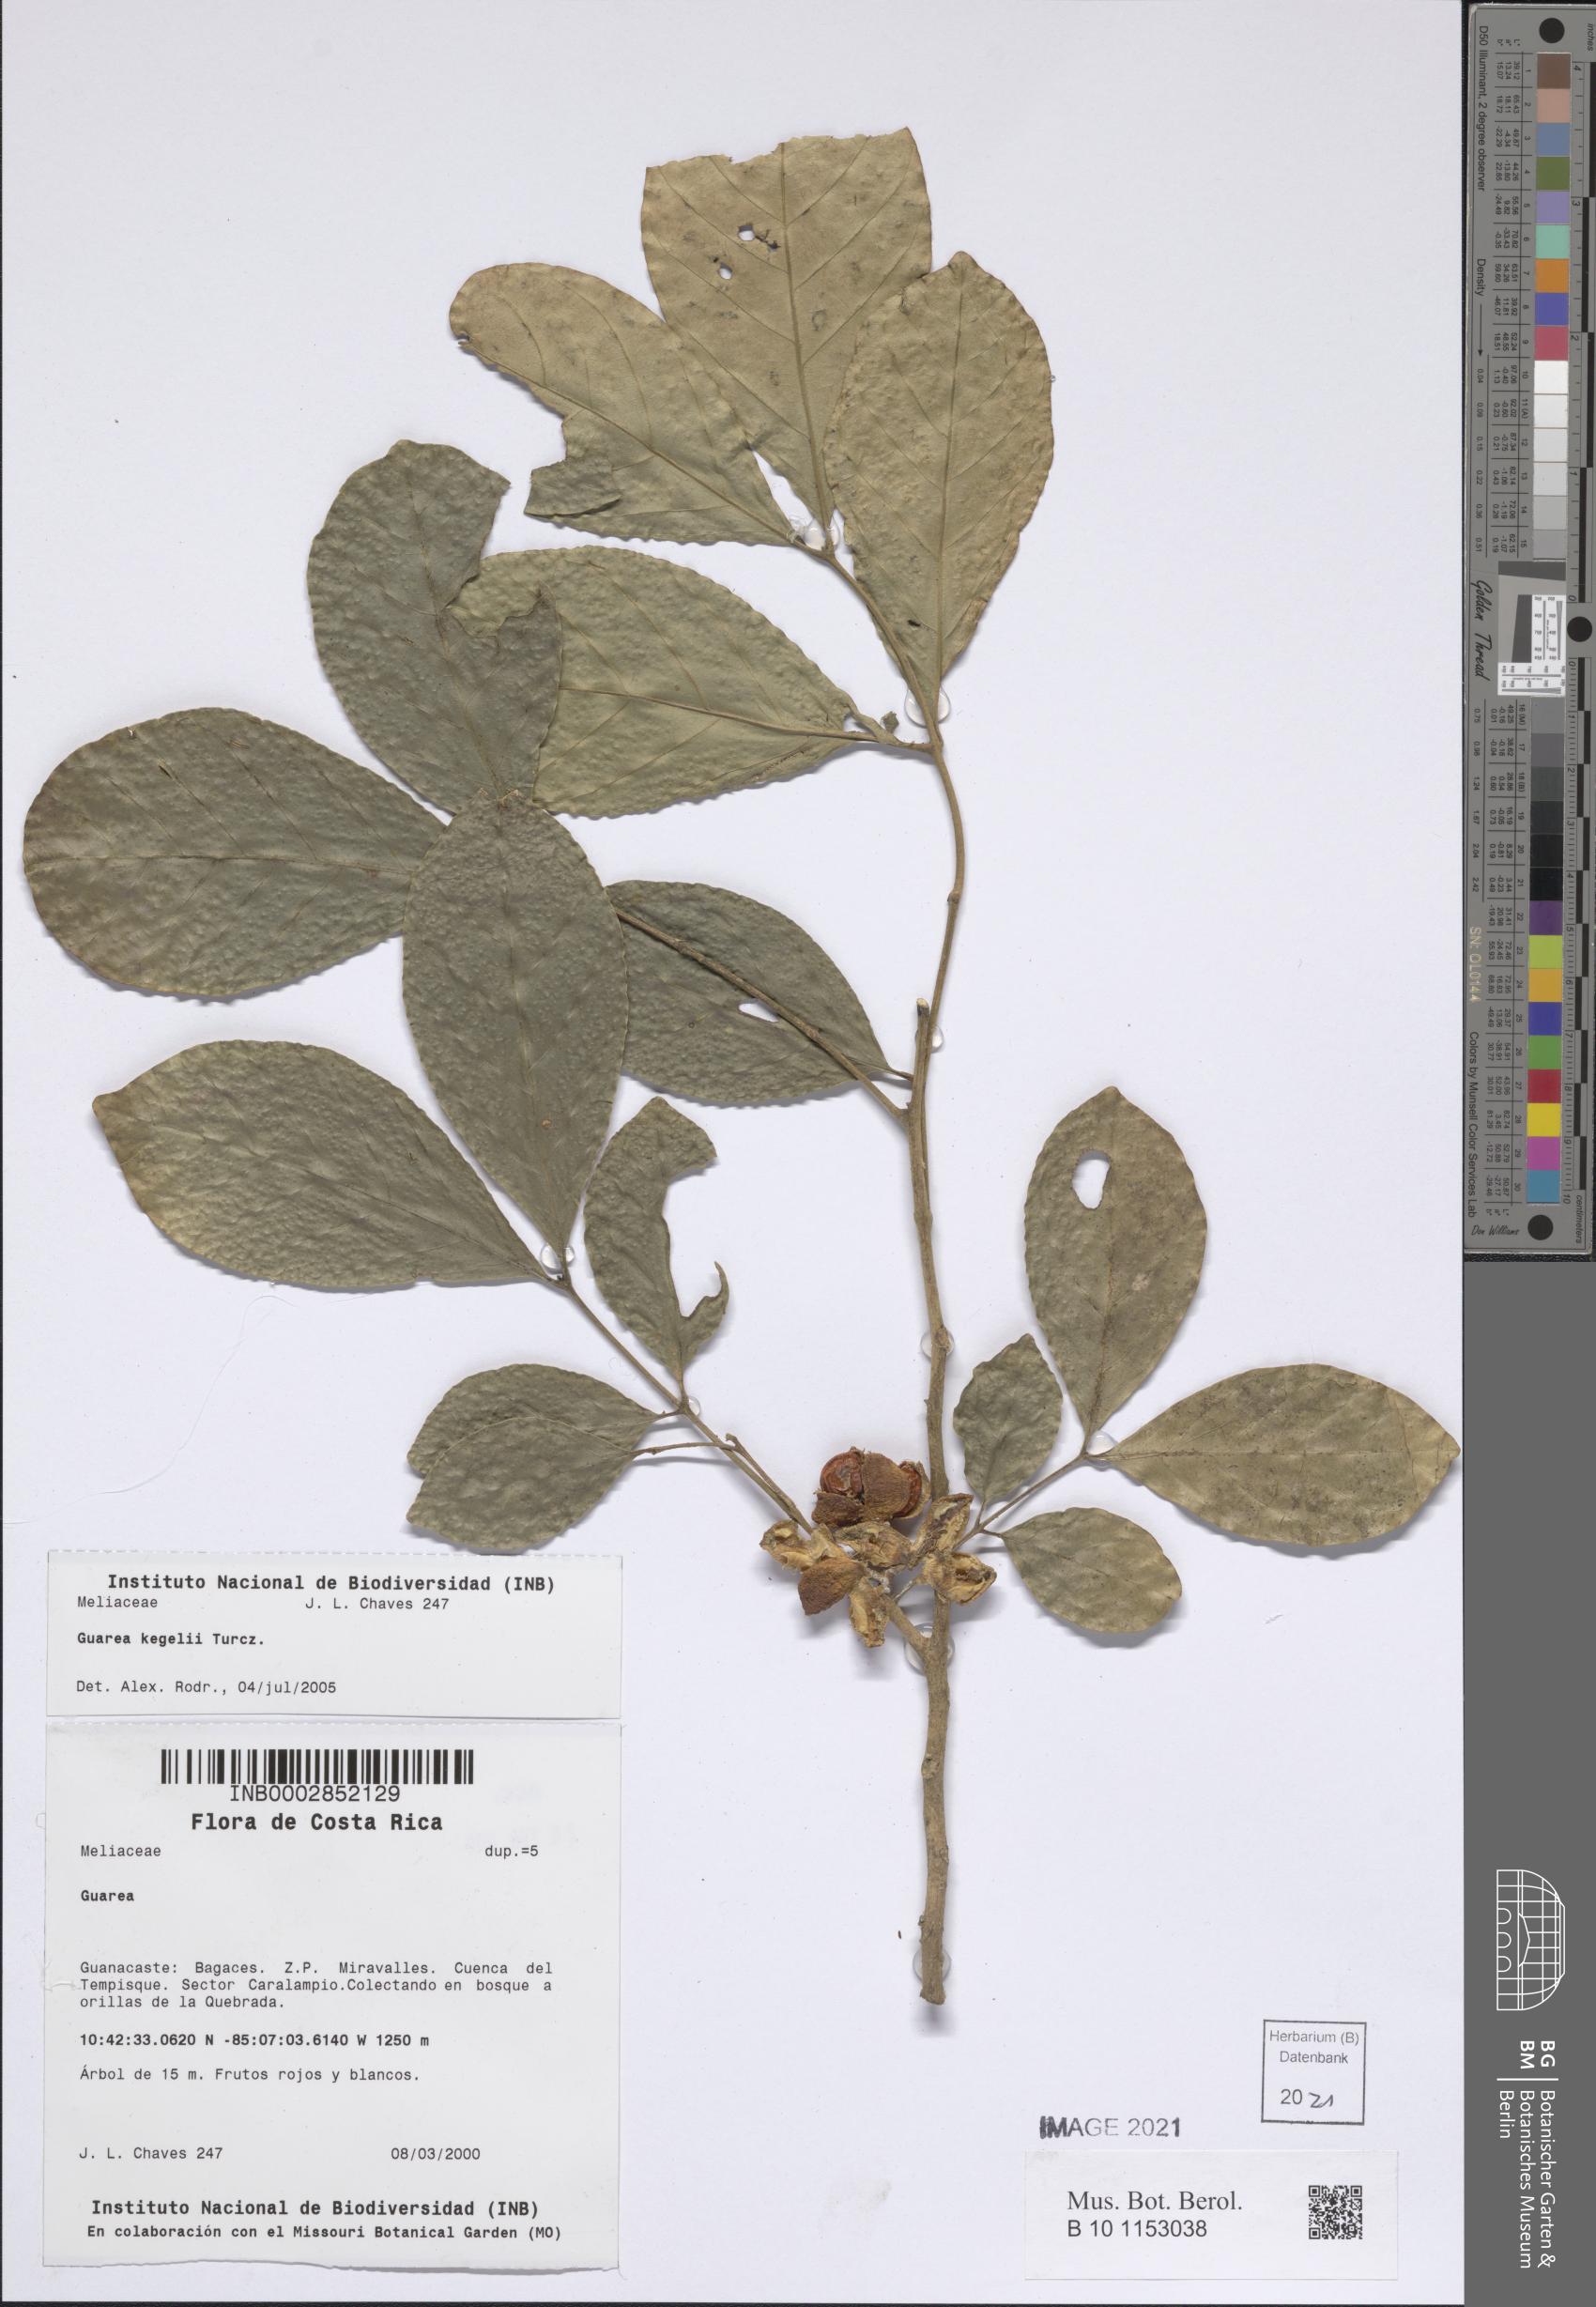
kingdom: Plantae
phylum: Tracheophyta
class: Magnoliopsida
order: Sapindales
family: Meliaceae
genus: Guarea
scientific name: Guarea glabra
